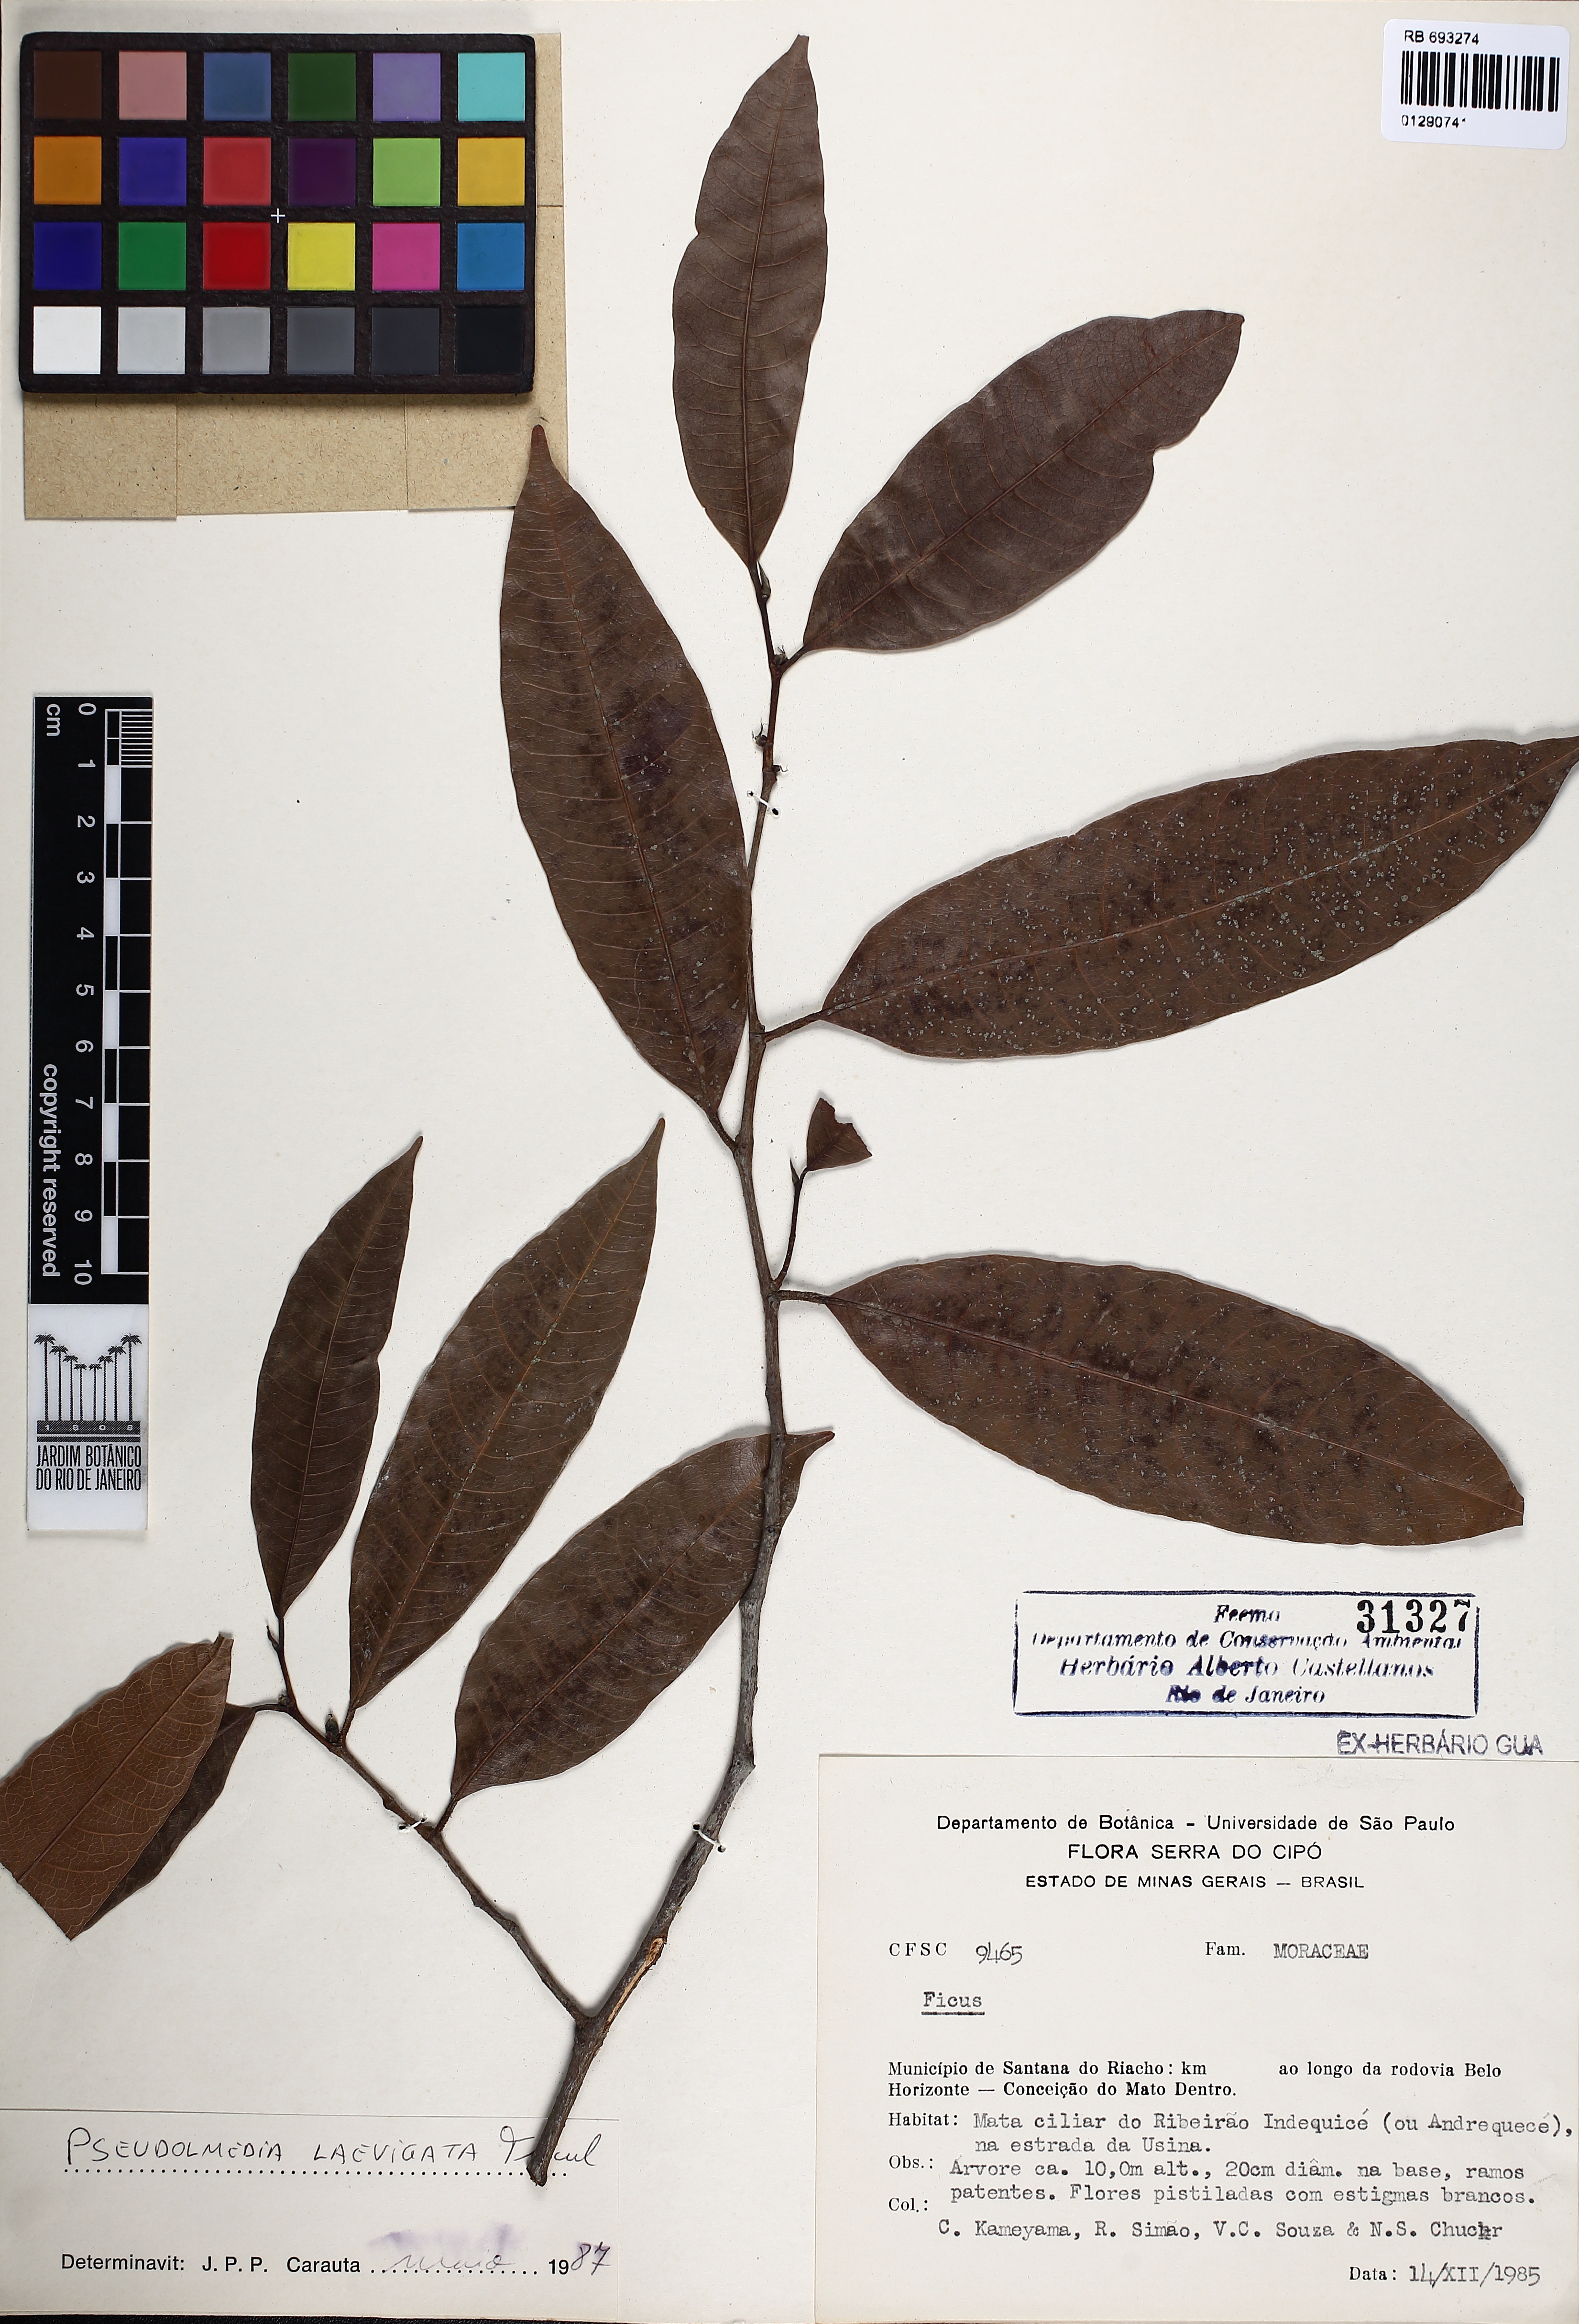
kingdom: Plantae
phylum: Tracheophyta
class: Magnoliopsida
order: Rosales
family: Moraceae
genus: Pseudolmedia
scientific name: Pseudolmedia laevigata
